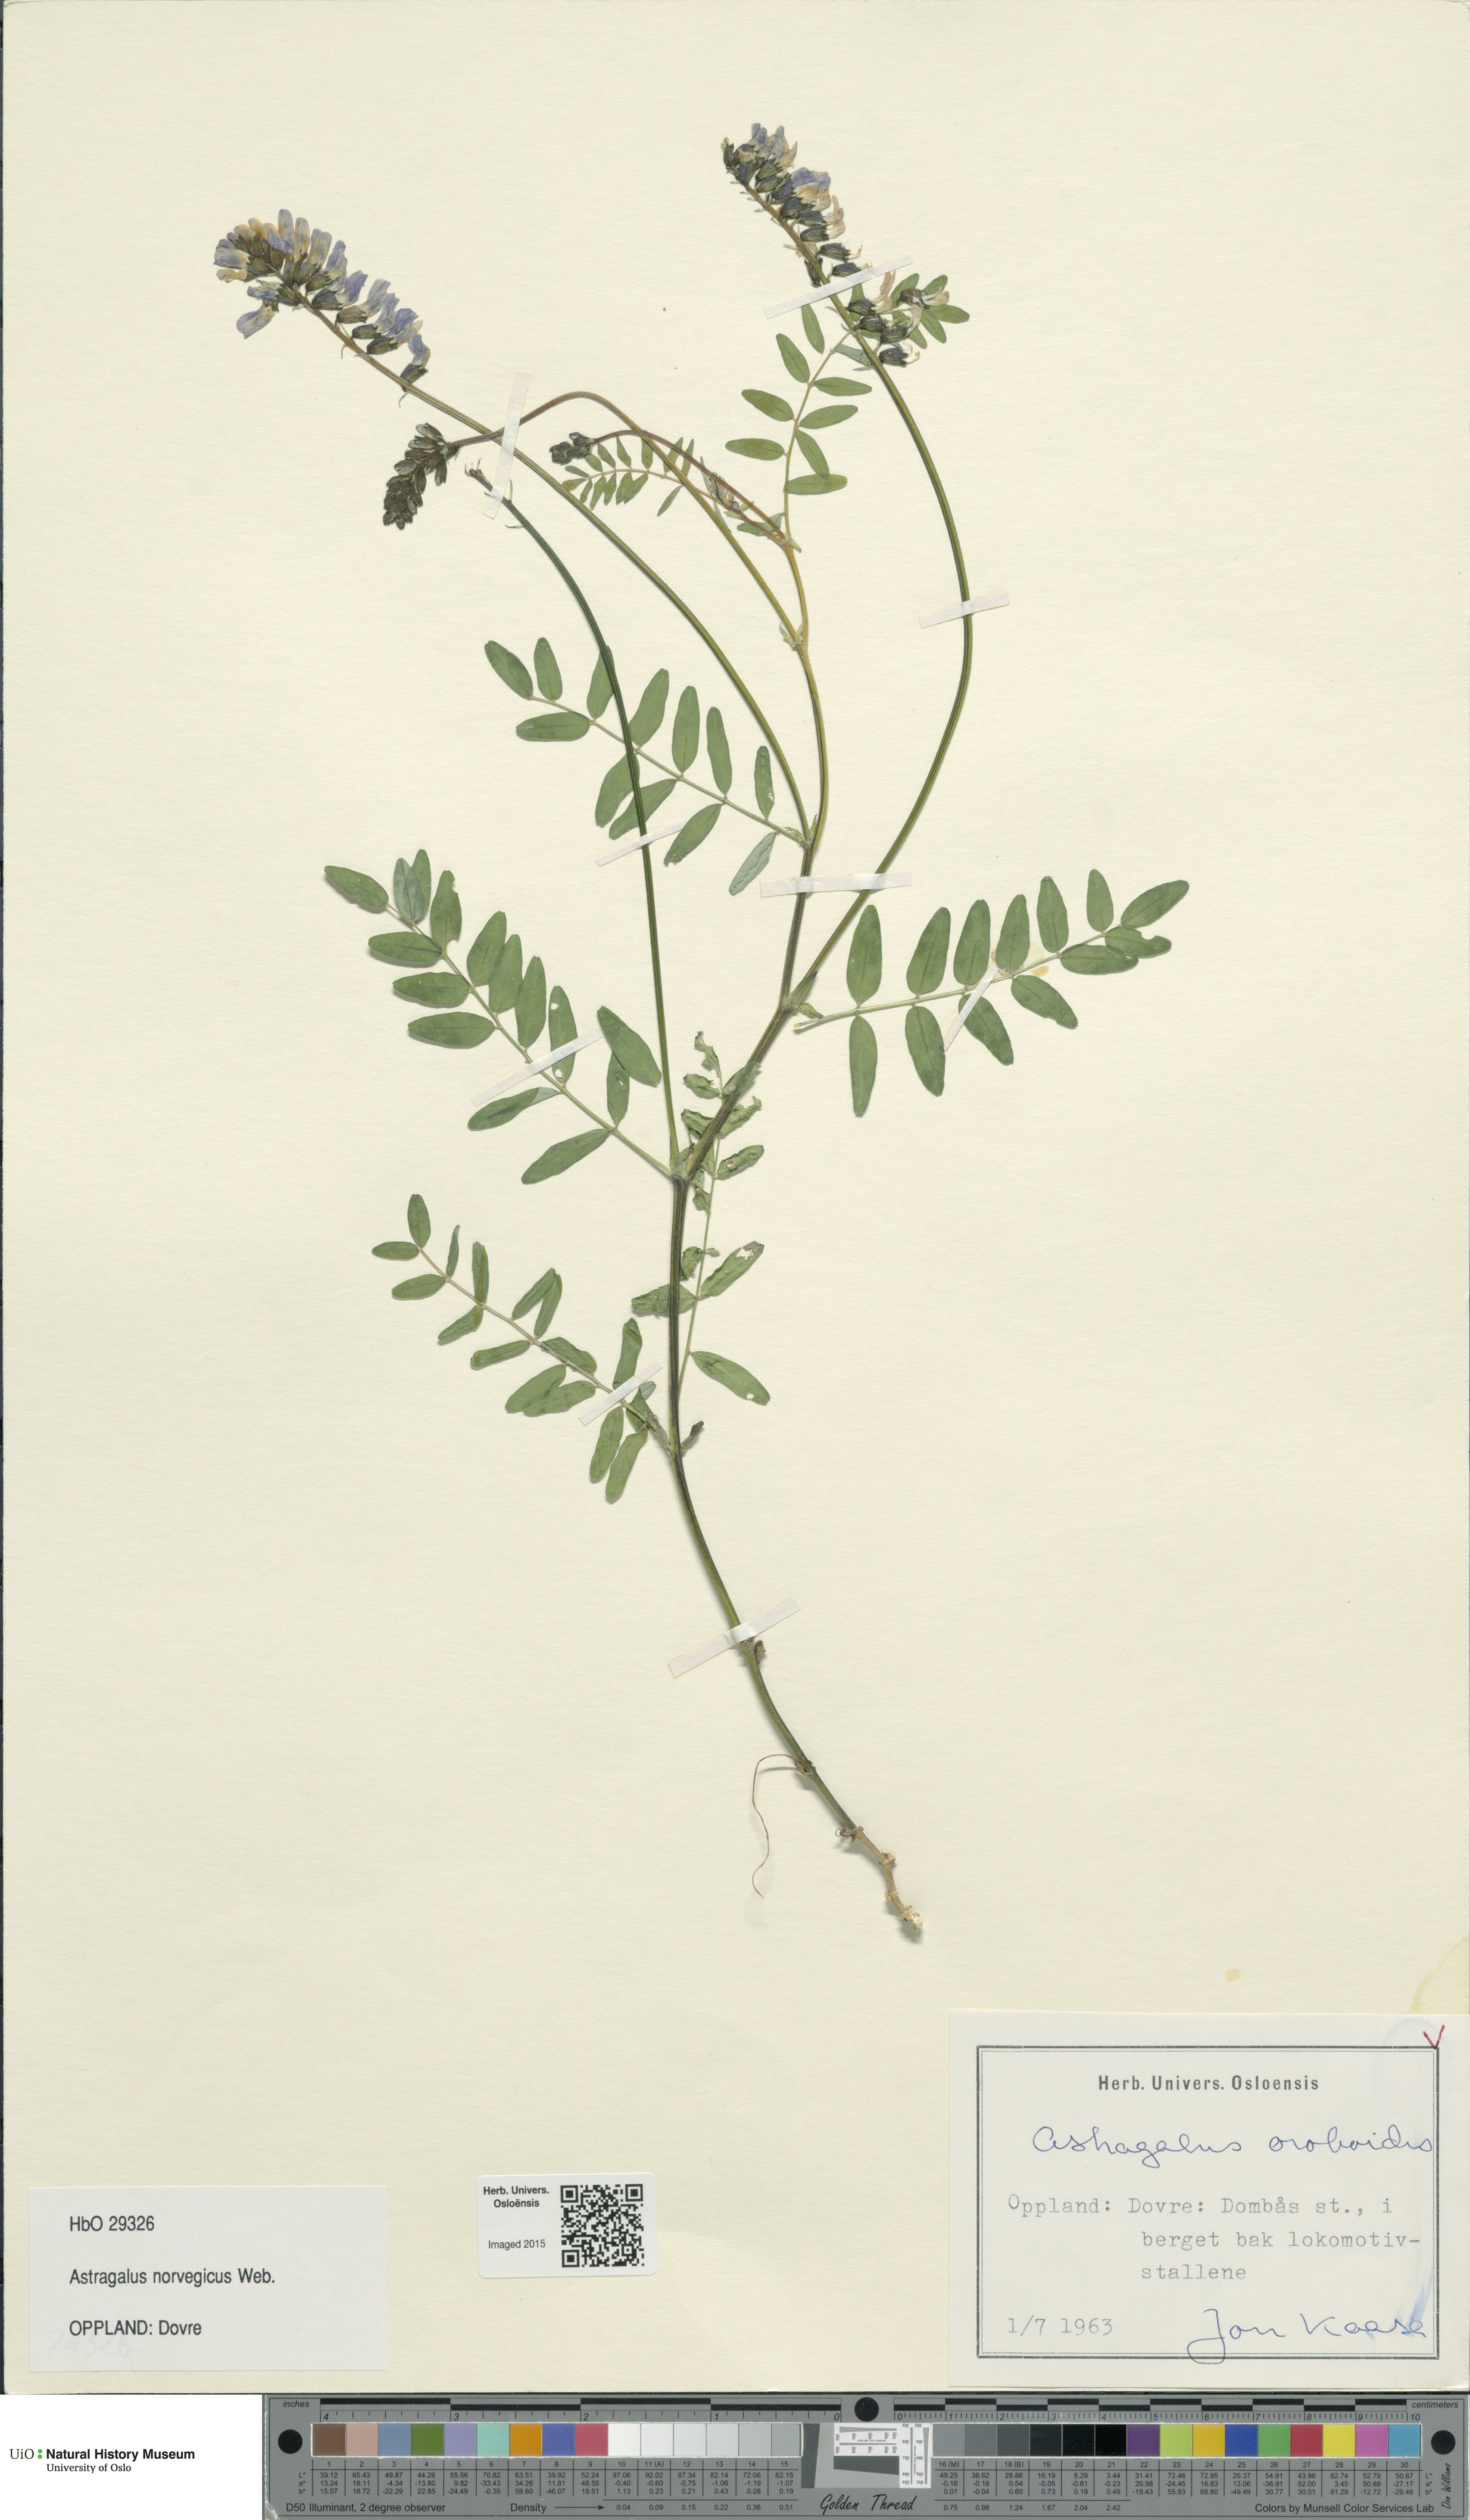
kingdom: Plantae
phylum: Tracheophyta
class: Magnoliopsida
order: Fabales
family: Fabaceae
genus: Astragalus
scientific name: Astragalus norvegicus
